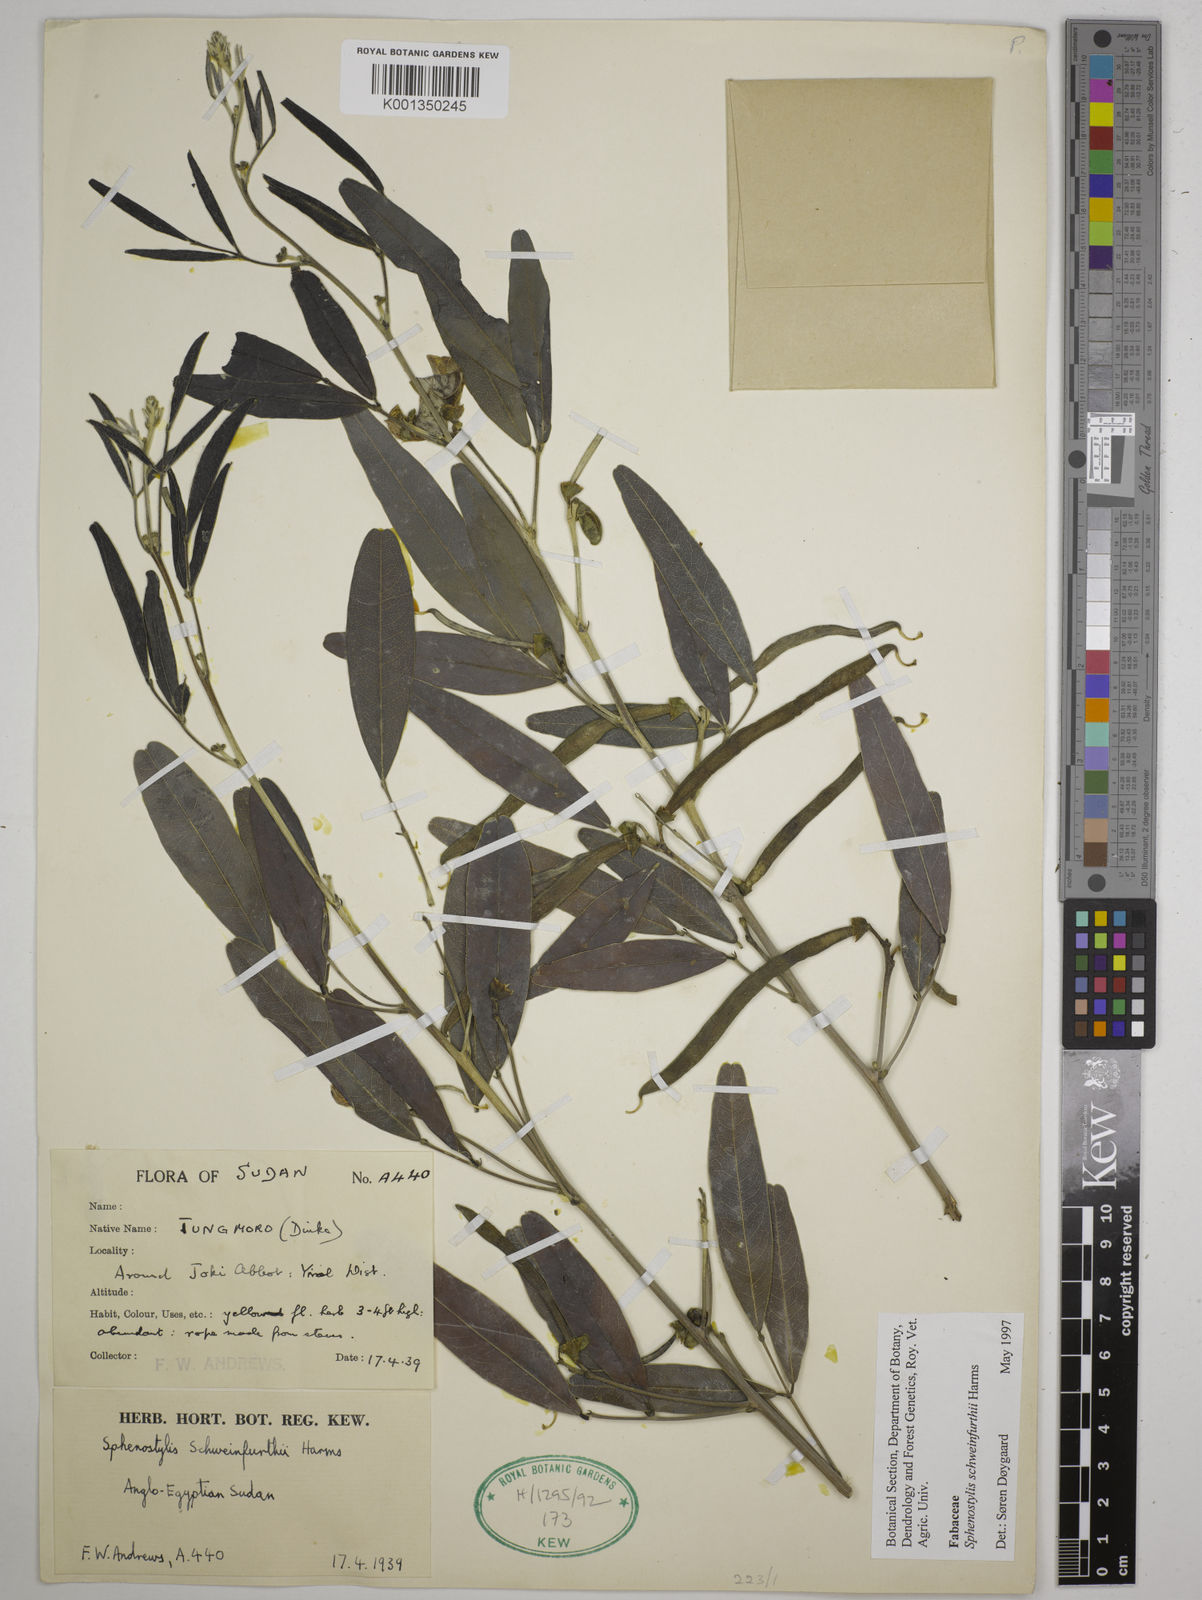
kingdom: Plantae
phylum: Tracheophyta
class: Magnoliopsida
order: Fabales
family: Fabaceae
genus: Sphenostylis
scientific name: Sphenostylis schweinfurthii
